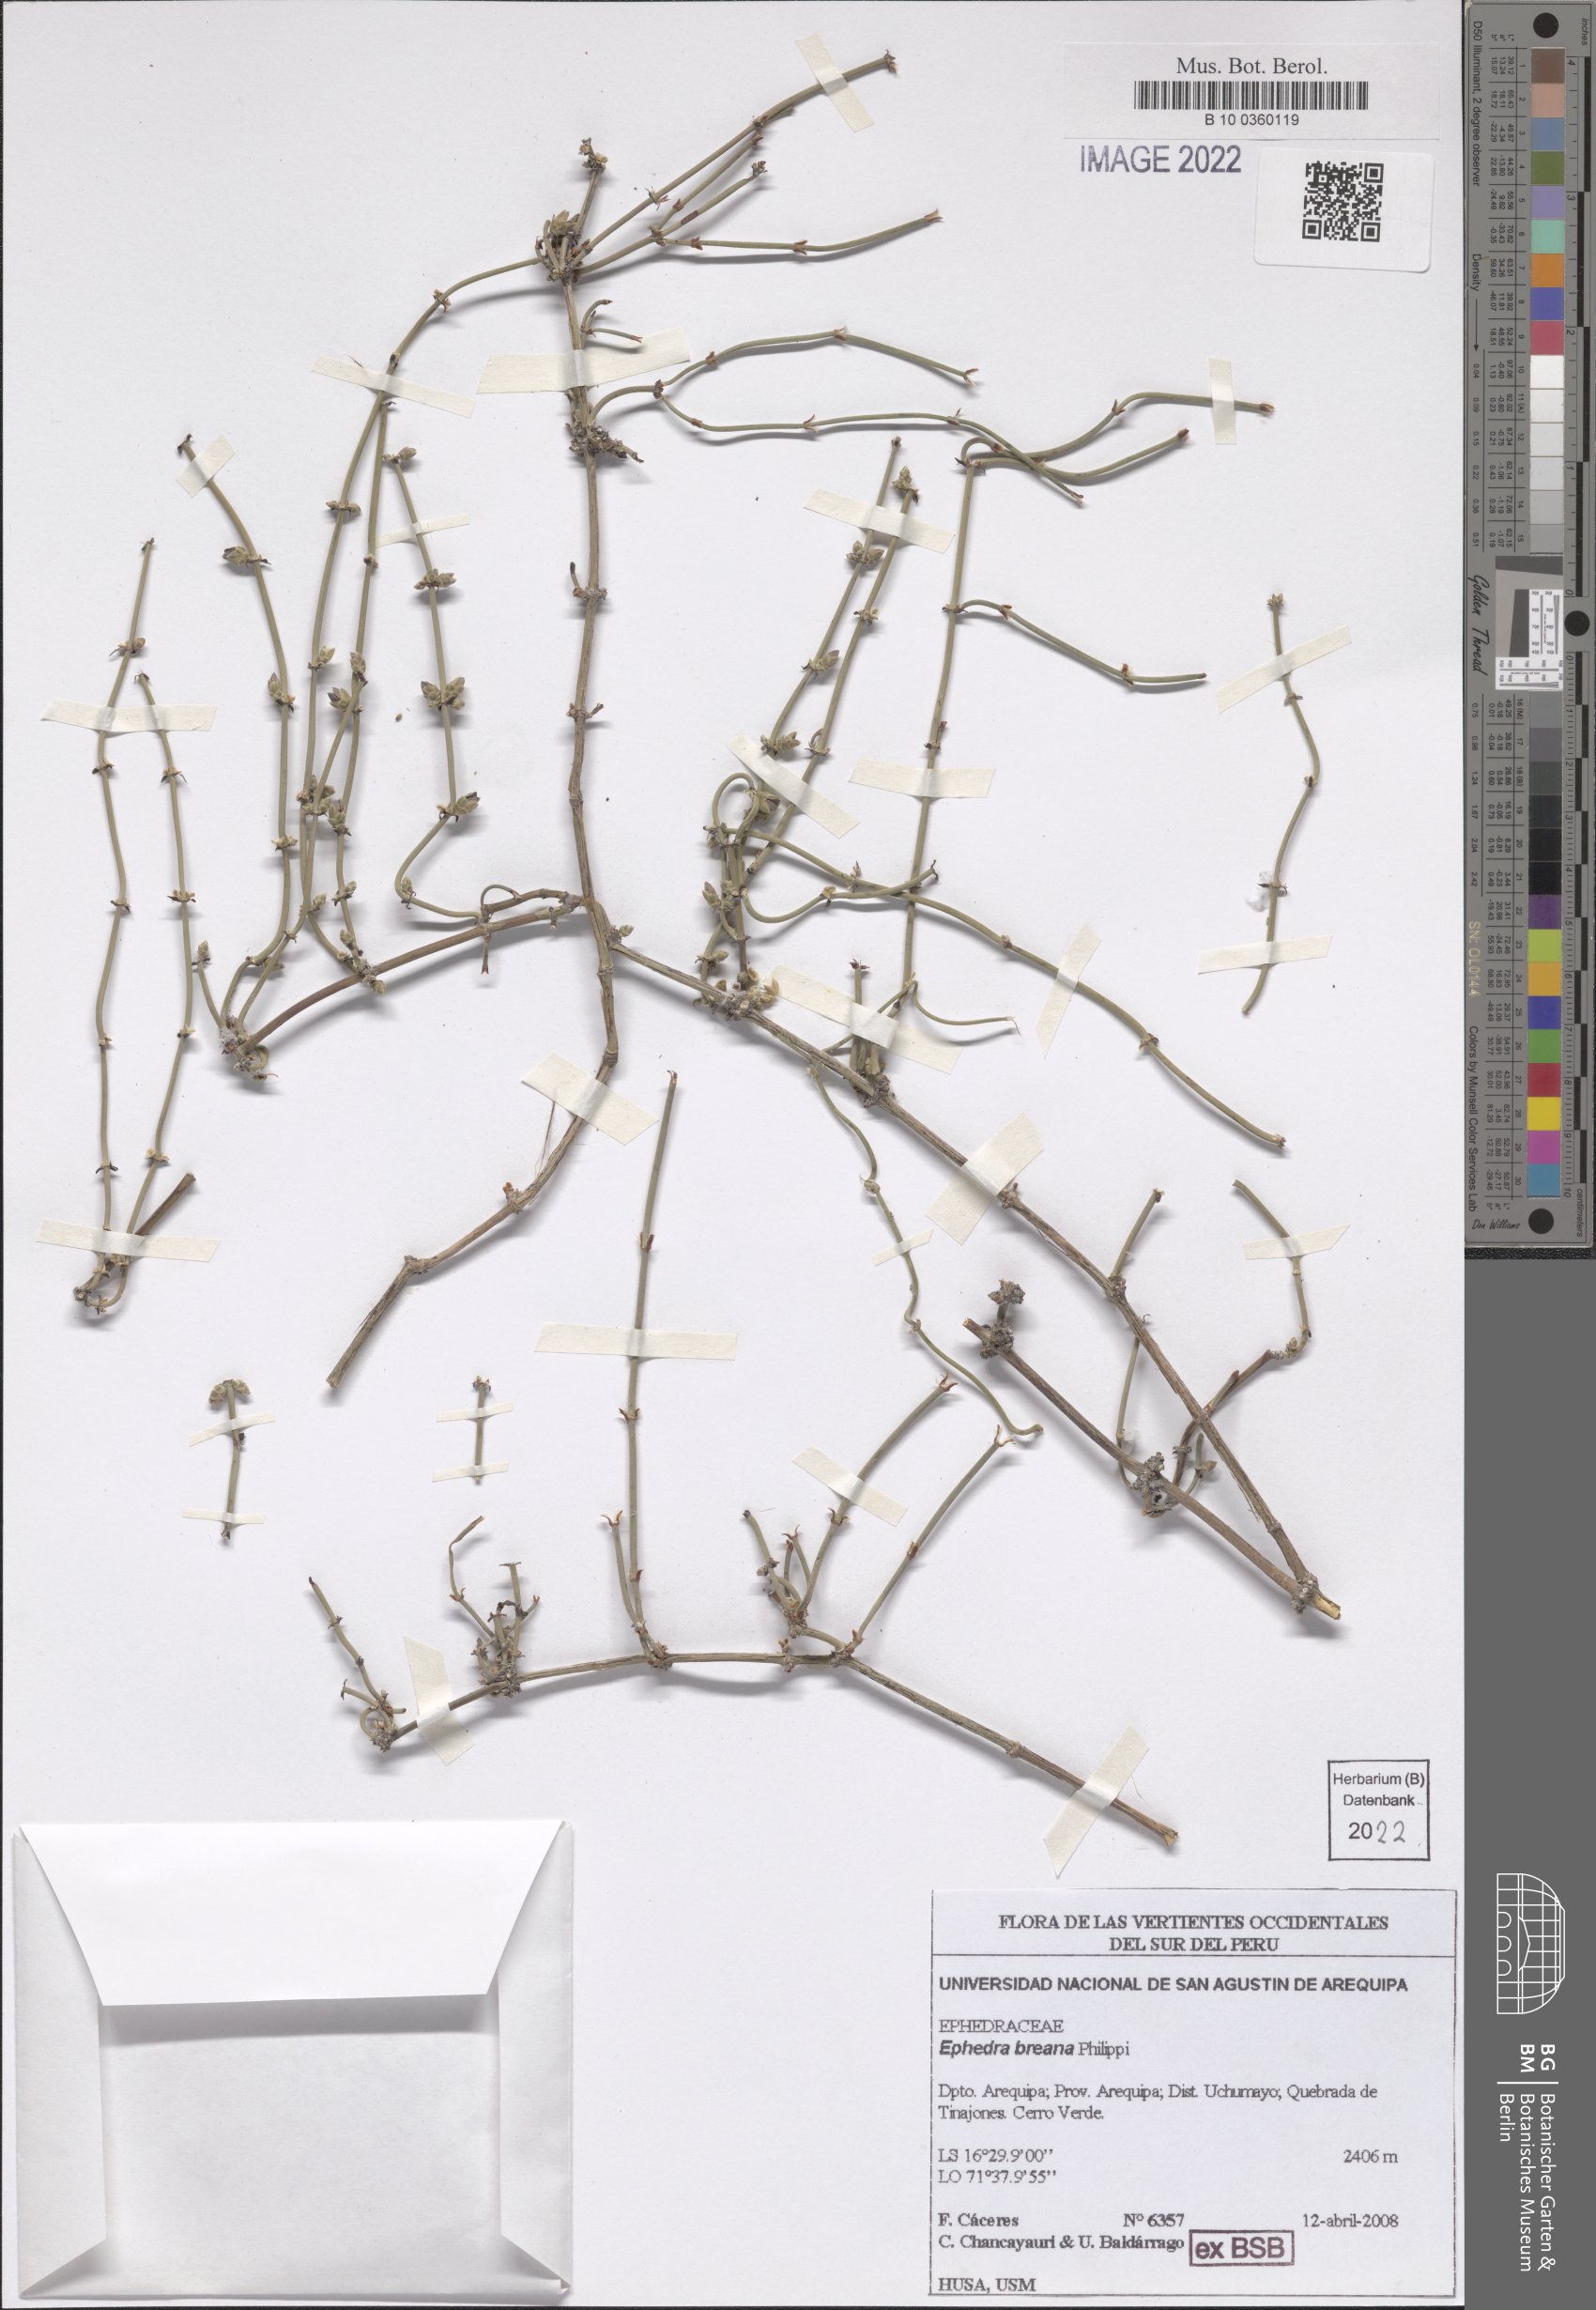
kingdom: Plantae
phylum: Tracheophyta
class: Gnetopsida
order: Ephedrales
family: Ephedraceae
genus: Ephedra
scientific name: Ephedra breana
